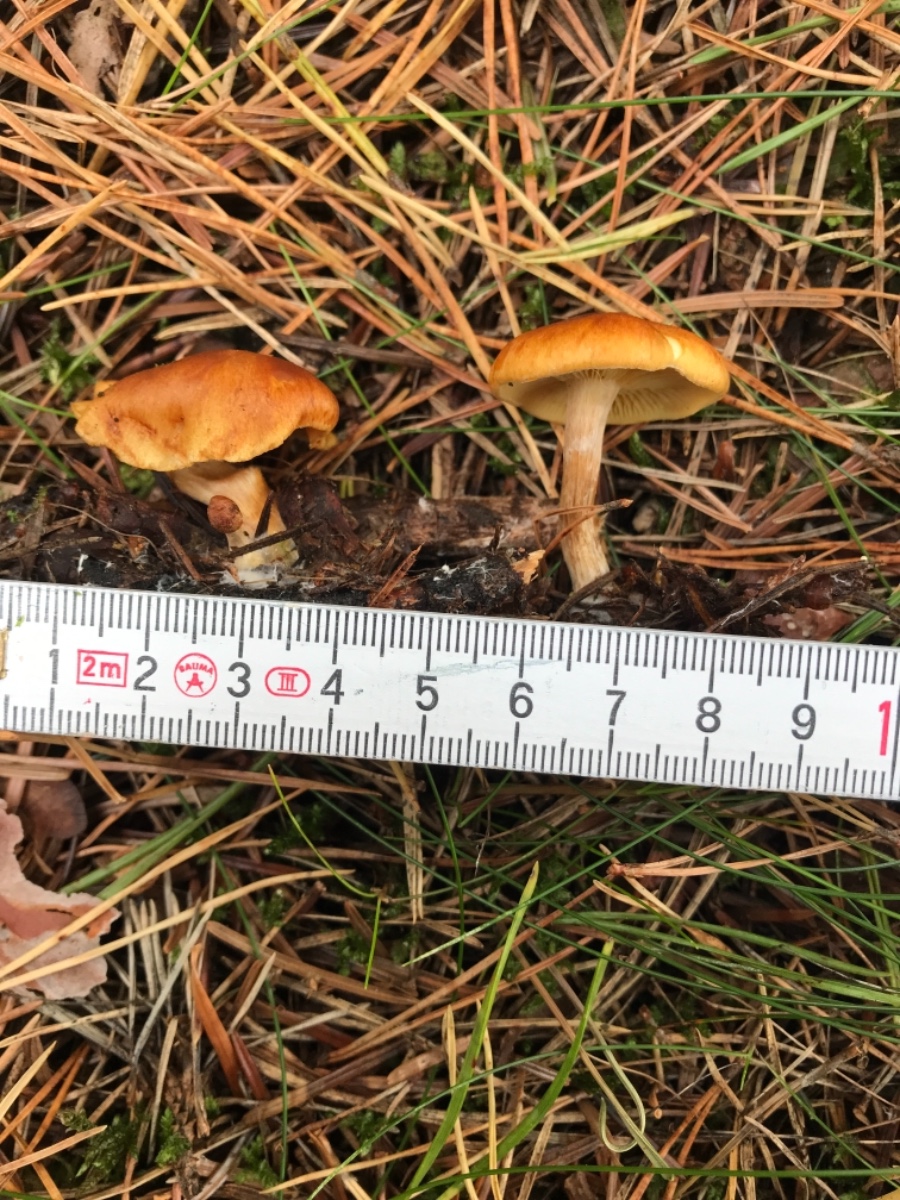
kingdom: Fungi
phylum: Basidiomycota
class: Agaricomycetes
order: Agaricales
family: Hymenogastraceae
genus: Gymnopilus
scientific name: Gymnopilus penetrans
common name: plettet flammehat
